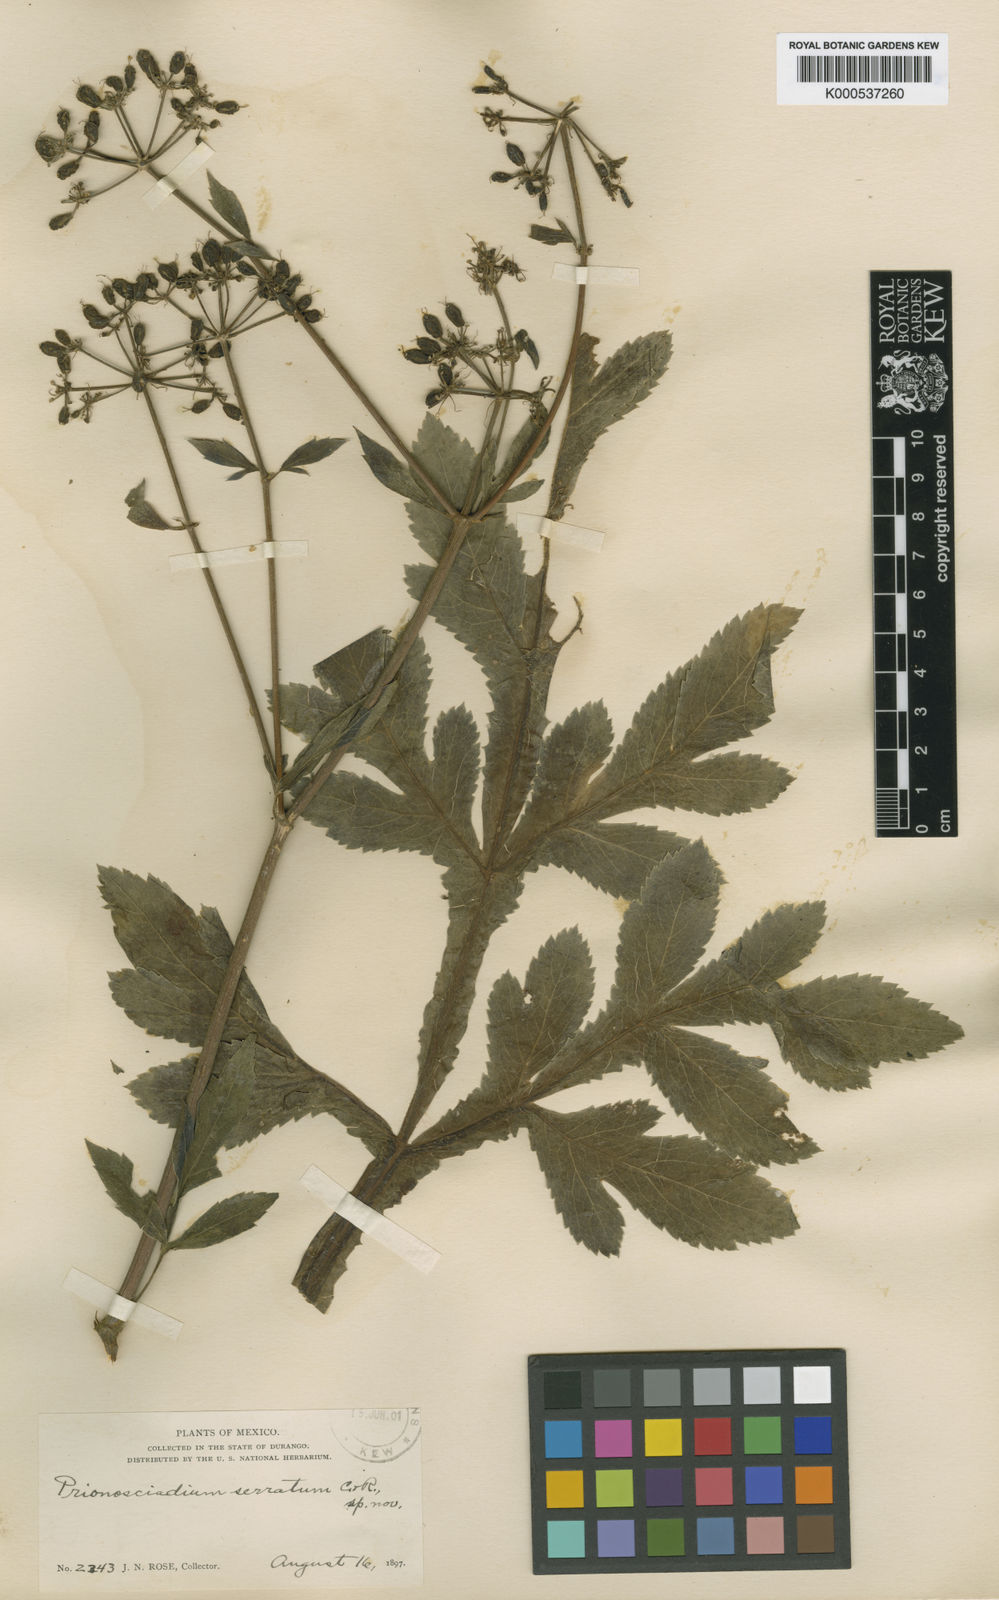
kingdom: Plantae
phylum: Tracheophyta
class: Magnoliopsida
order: Apiales
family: Apiaceae
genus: Prionosciadium
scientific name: Prionosciadium serratum
